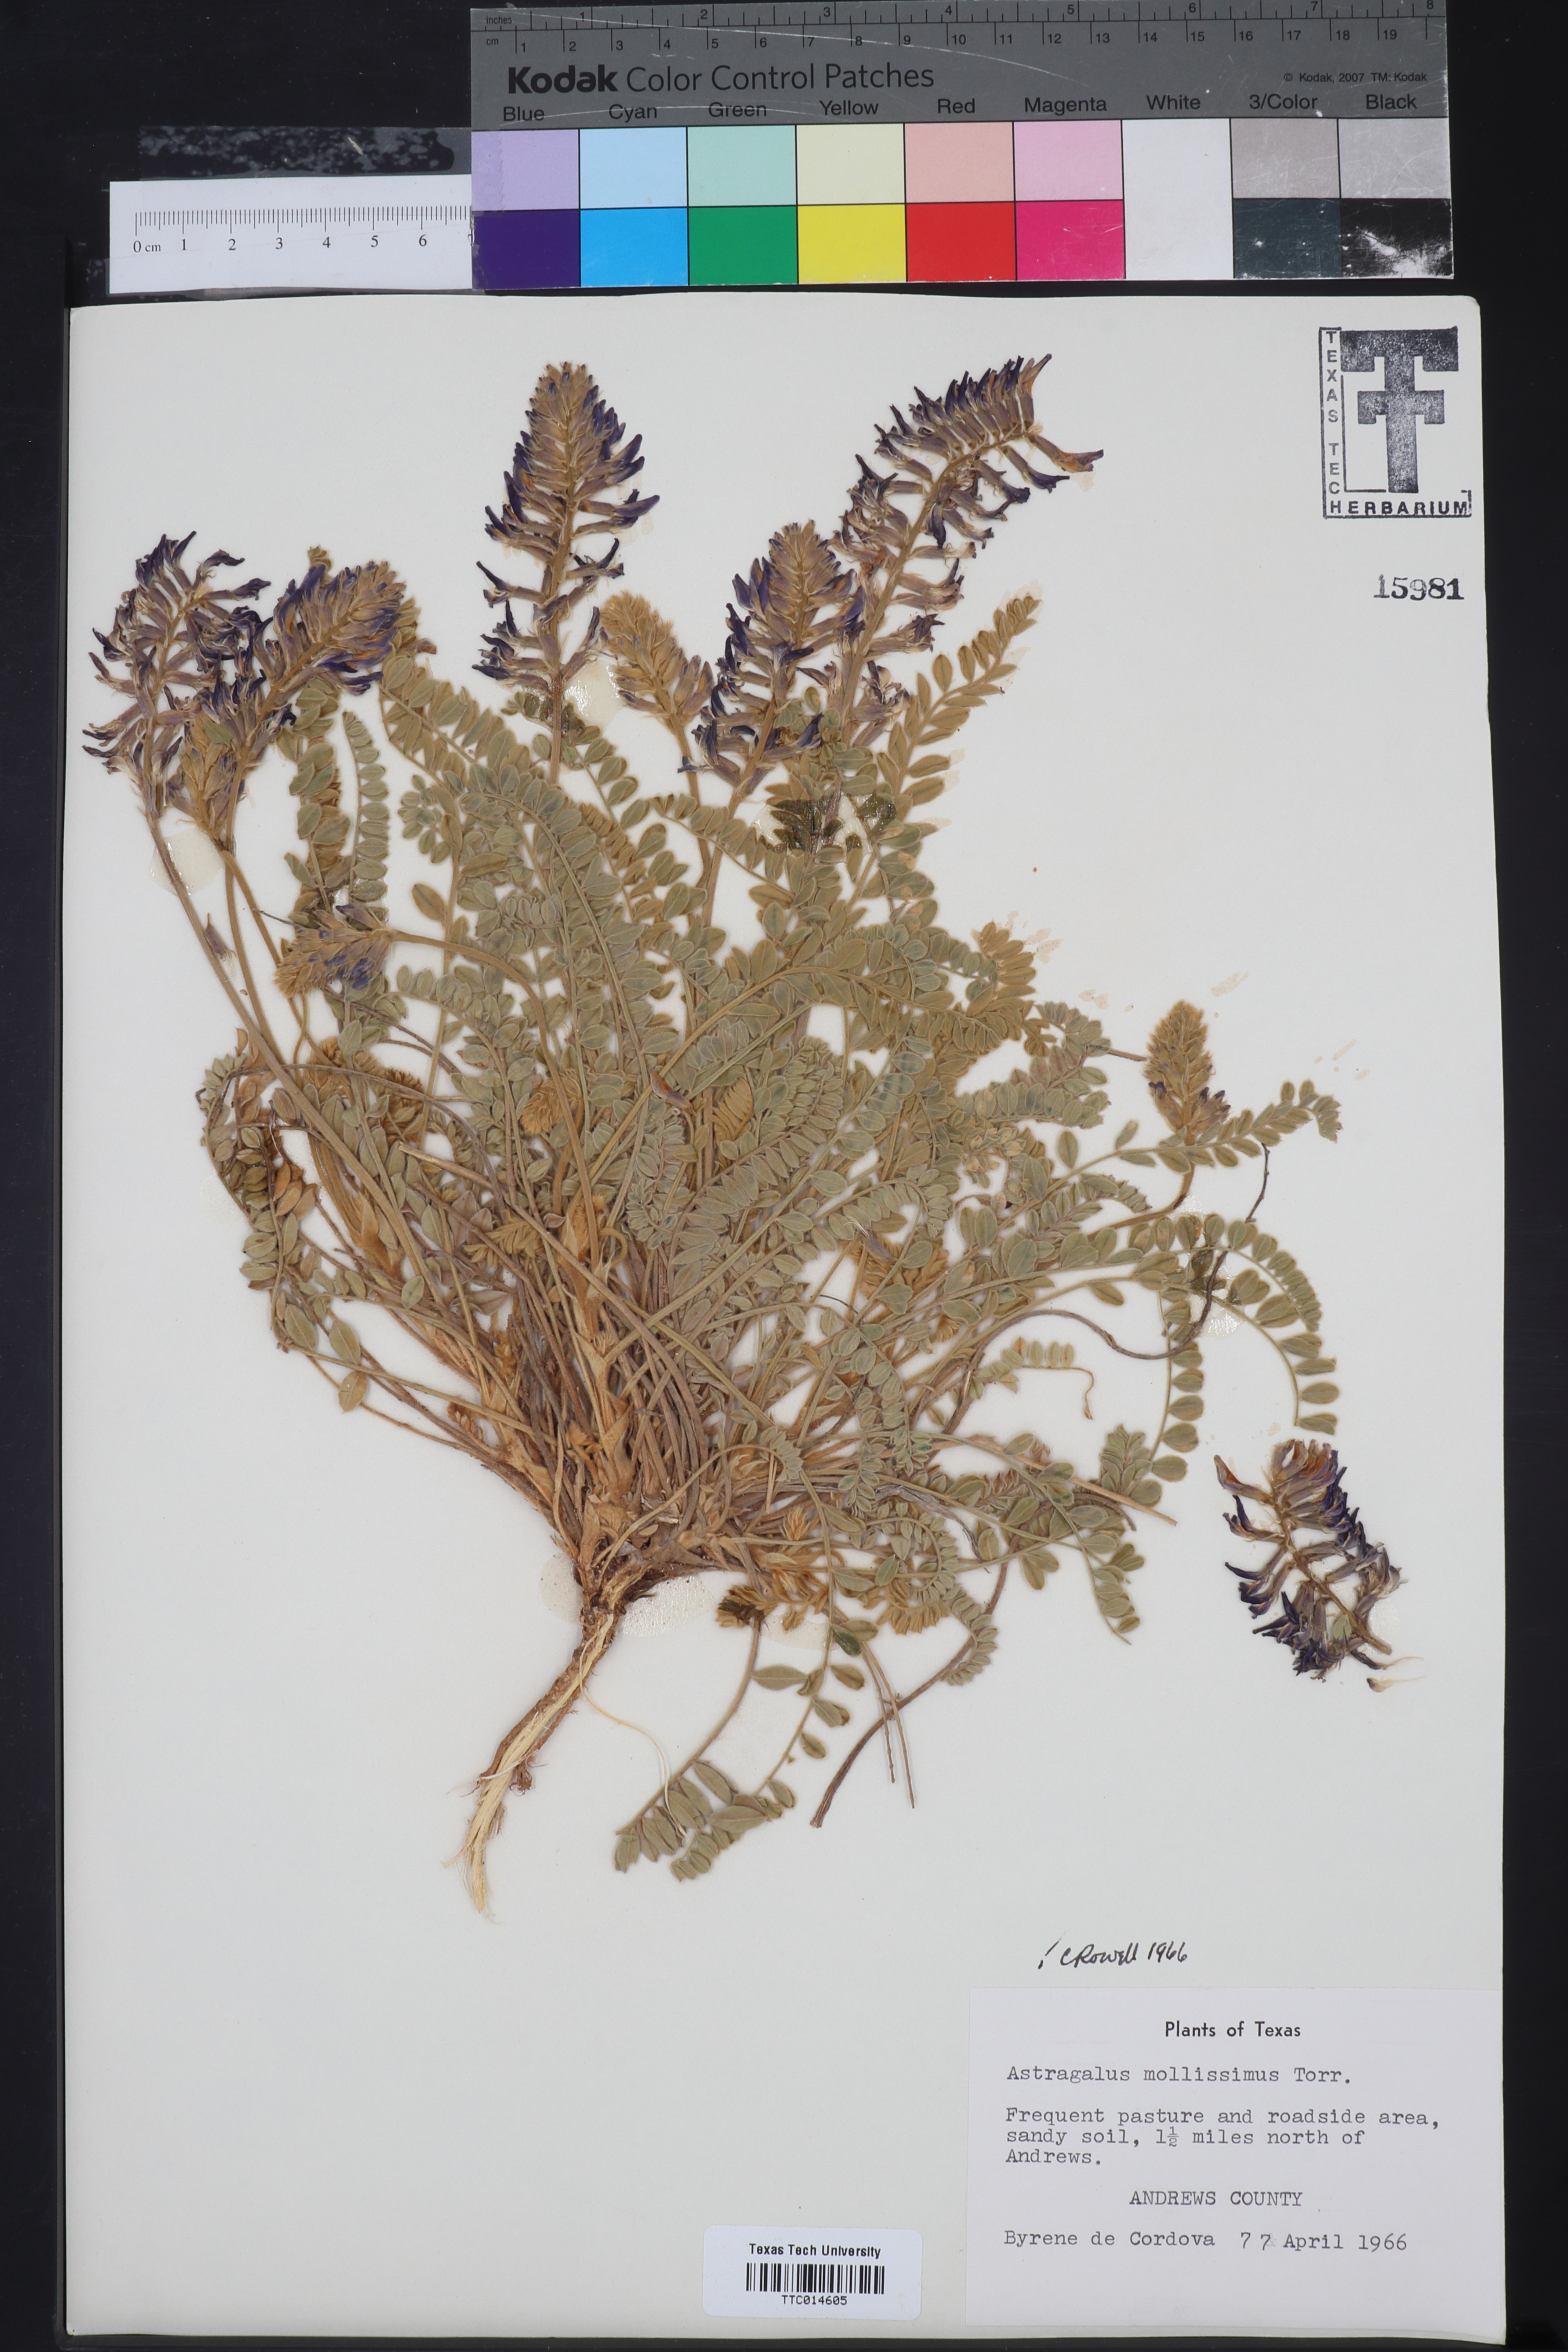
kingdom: Plantae
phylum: Tracheophyta
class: Magnoliopsida
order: Fabales
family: Fabaceae
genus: Astragalus
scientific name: Astragalus missouriensis
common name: Missouri milk-vetch
